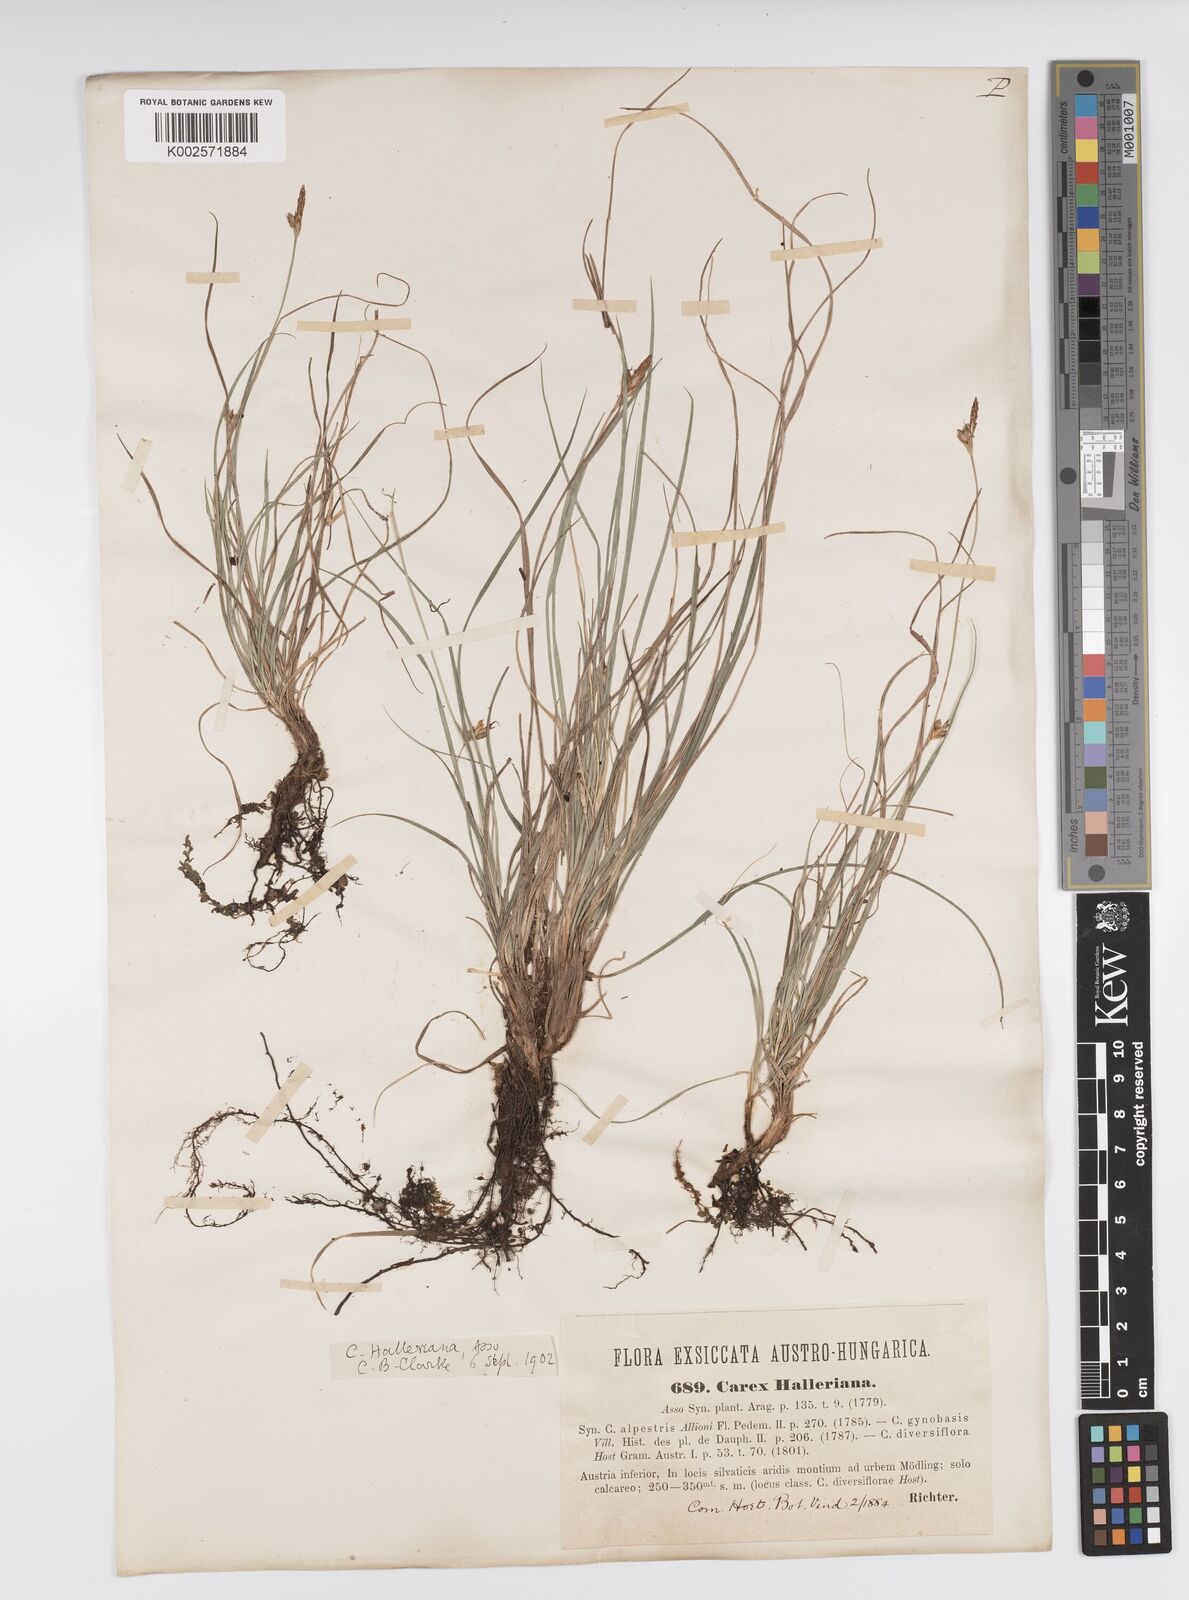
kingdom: Plantae
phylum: Tracheophyta
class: Liliopsida
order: Poales
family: Cyperaceae
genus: Carex
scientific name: Carex halleriana
